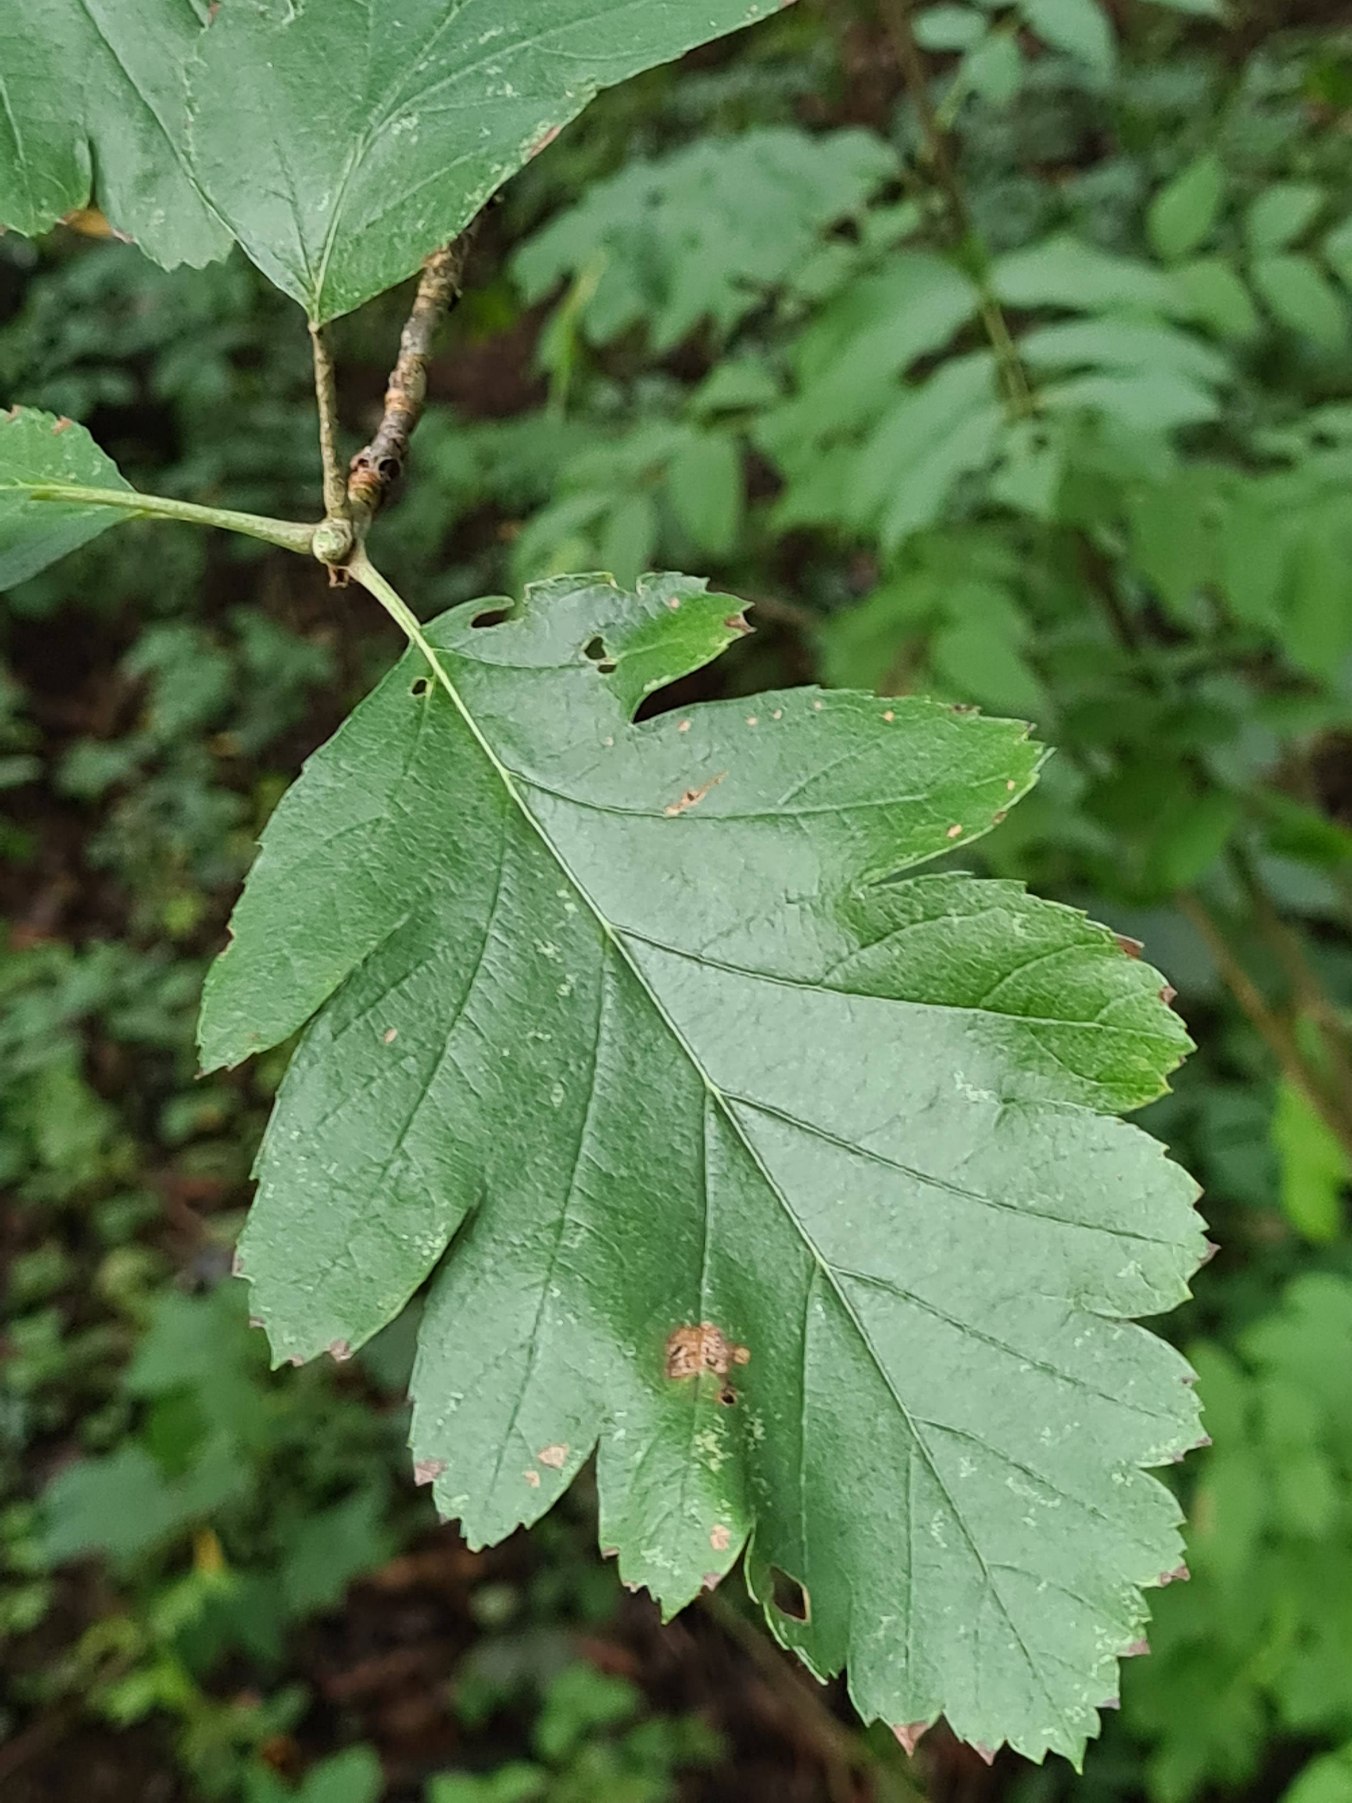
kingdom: Plantae
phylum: Tracheophyta
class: Magnoliopsida
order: Rosales
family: Rosaceae
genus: Scandosorbus
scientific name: Scandosorbus intermedia
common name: Selje-røn
